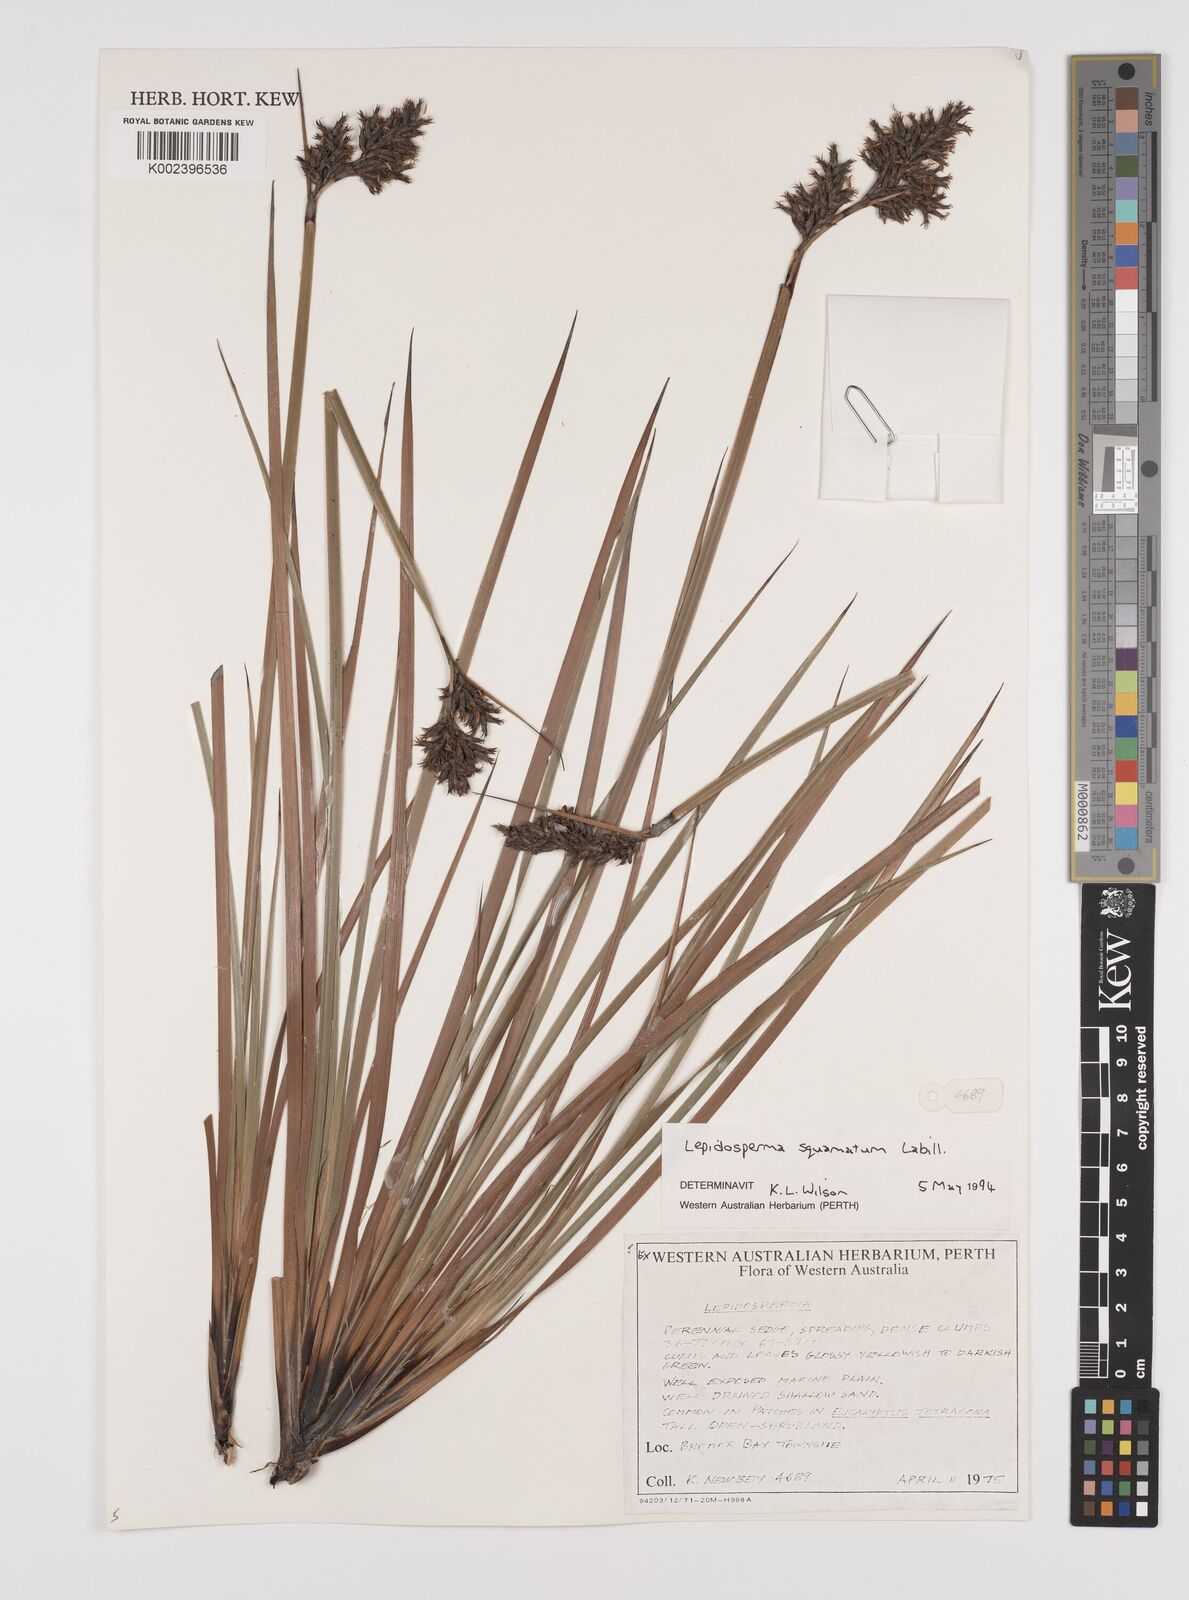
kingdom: Plantae
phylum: Tracheophyta
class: Liliopsida
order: Poales
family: Cyperaceae
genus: Lepidosperma
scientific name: Lepidosperma squamatum
